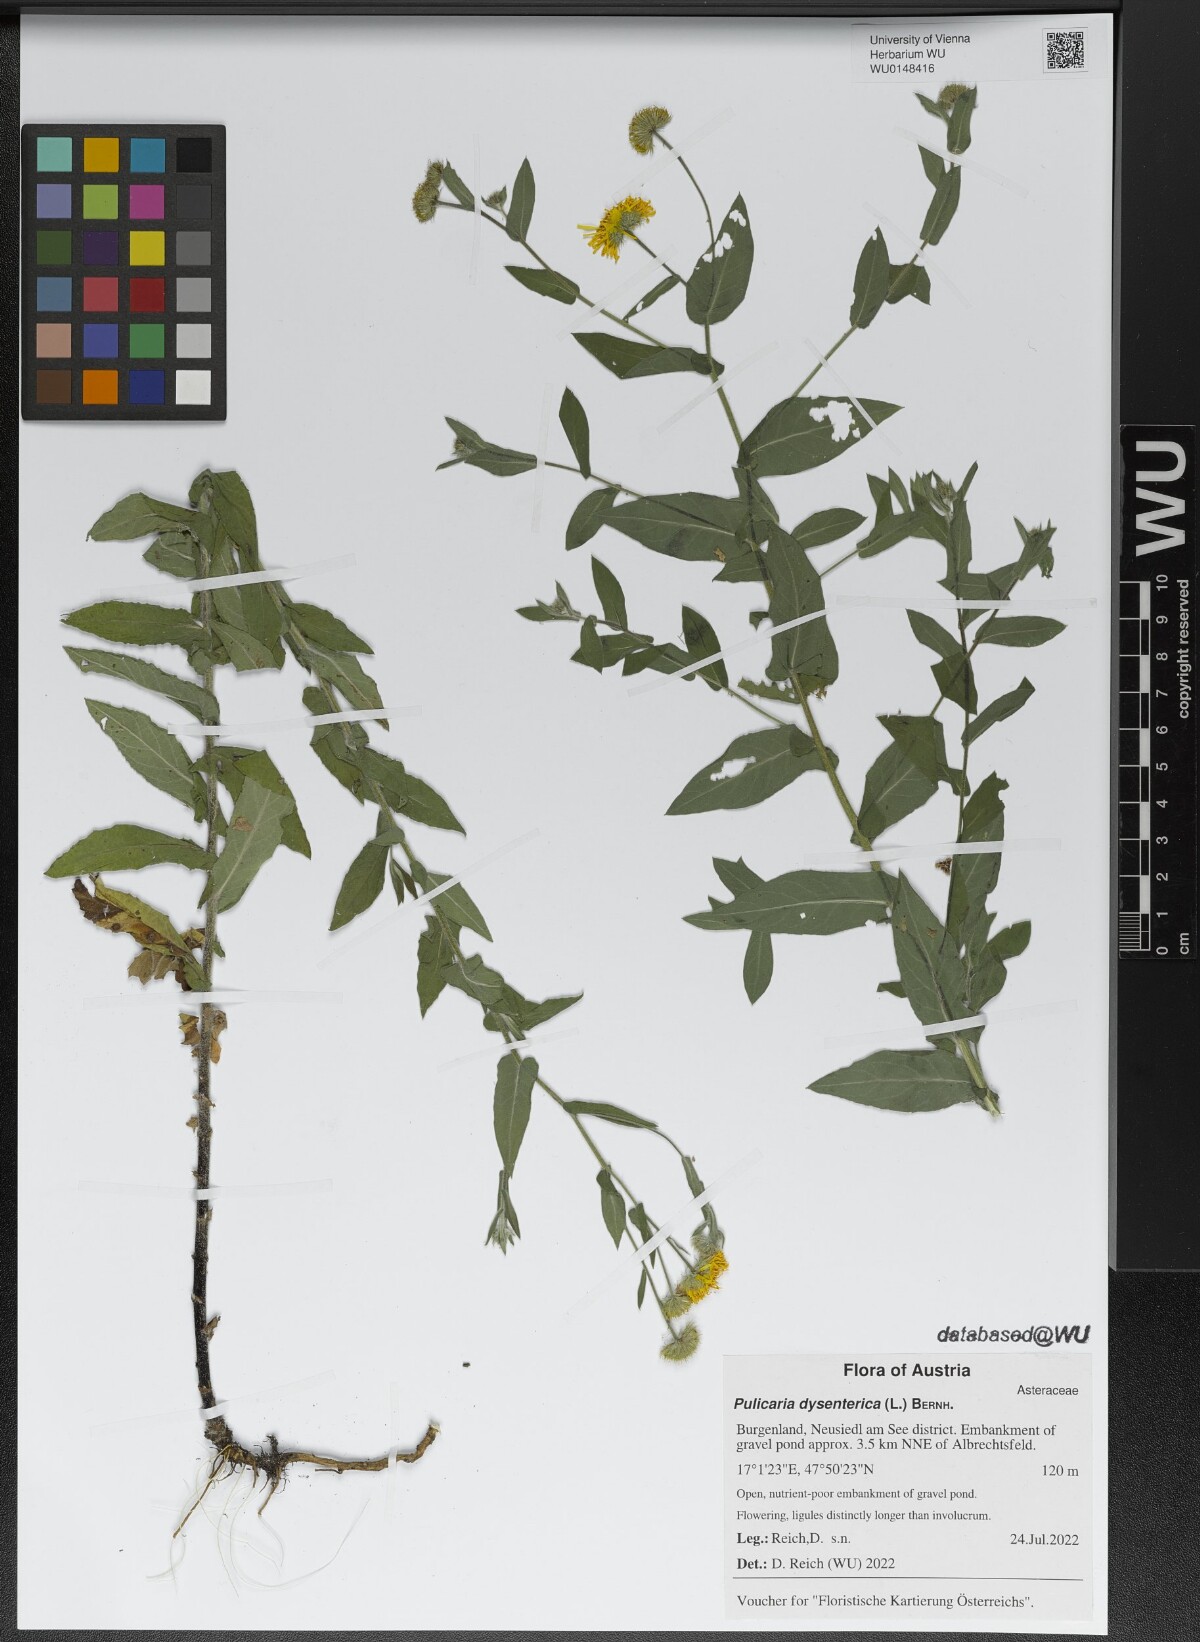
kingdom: Plantae
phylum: Tracheophyta
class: Magnoliopsida
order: Asterales
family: Asteraceae
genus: Pulicaria
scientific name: Pulicaria dysenterica
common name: Common fleabane
